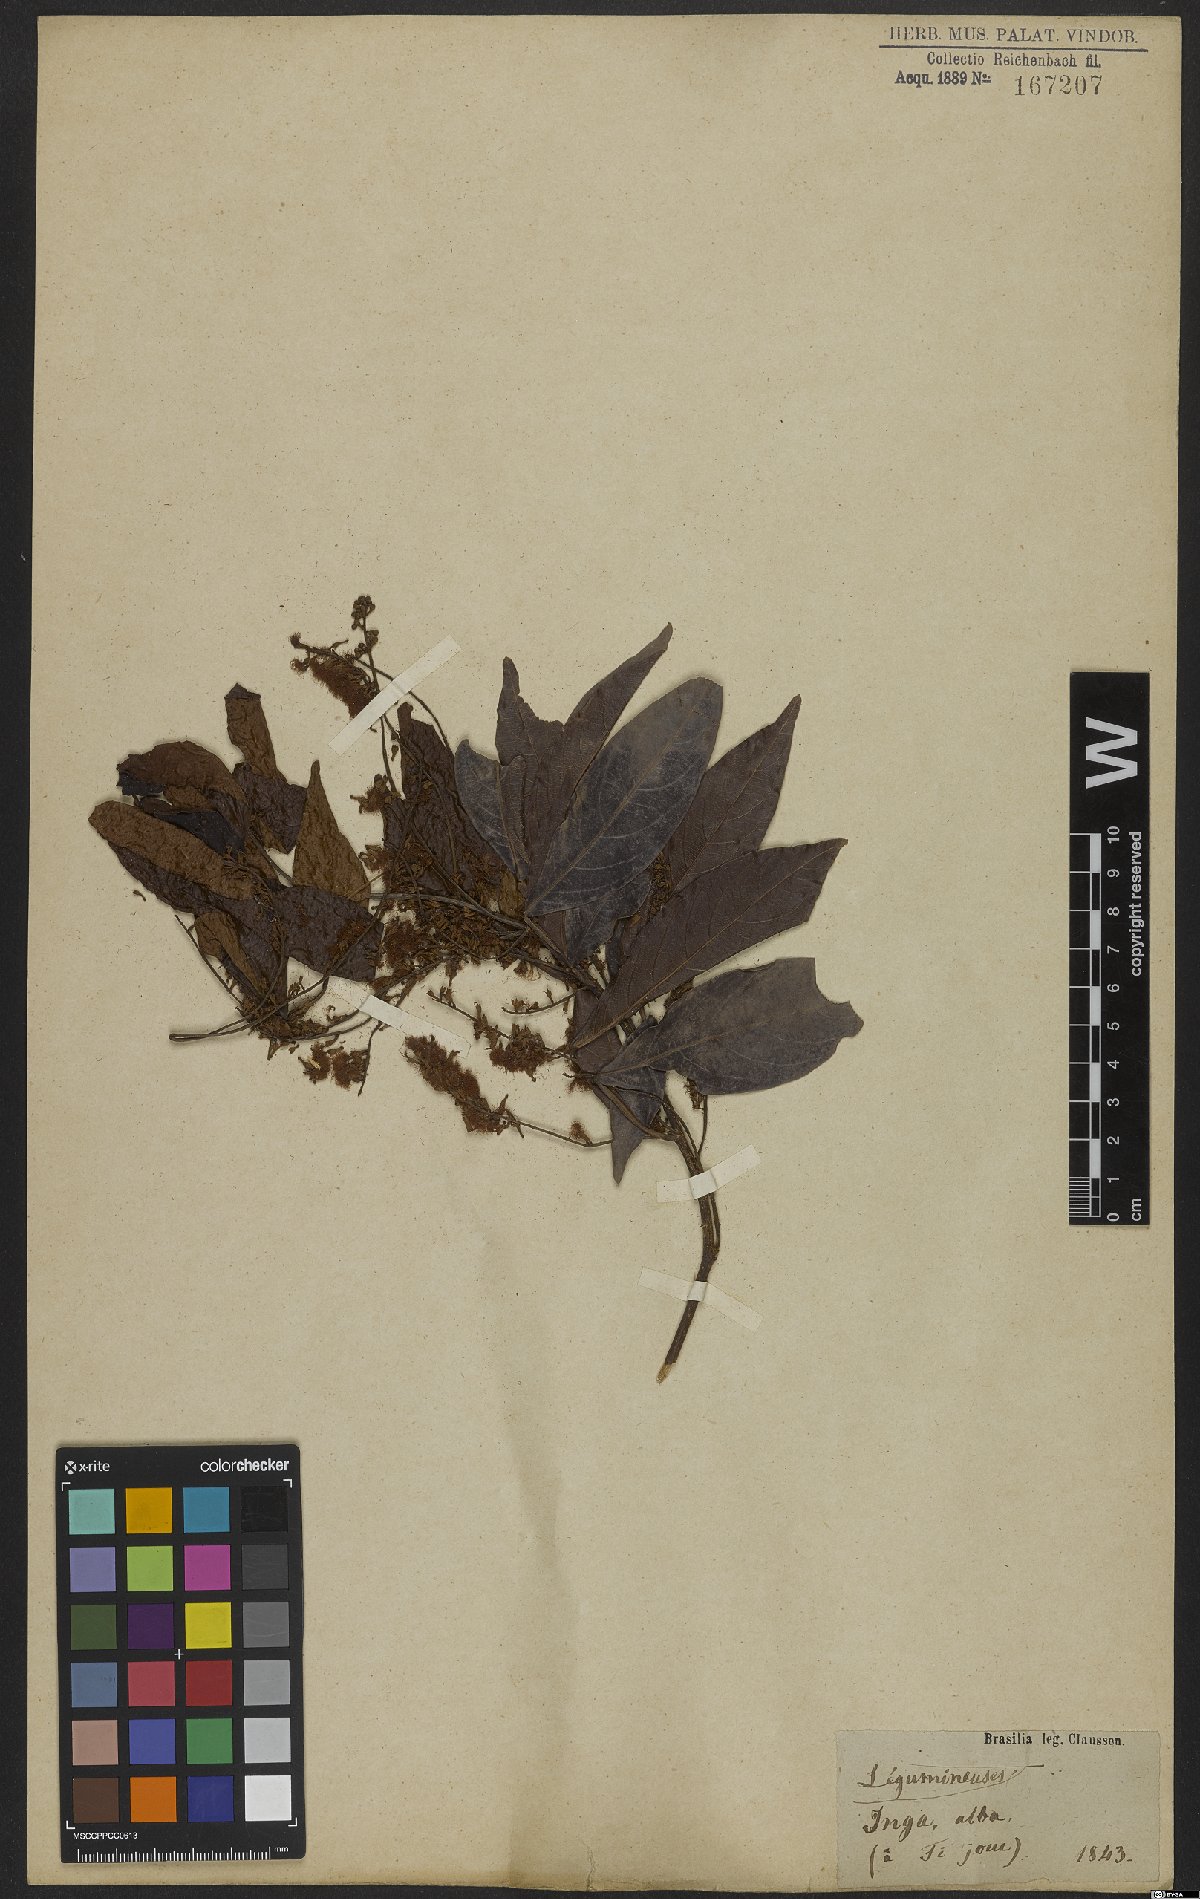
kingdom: Plantae
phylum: Tracheophyta
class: Magnoliopsida
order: Fabales
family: Fabaceae
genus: Inga
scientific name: Inga alba
